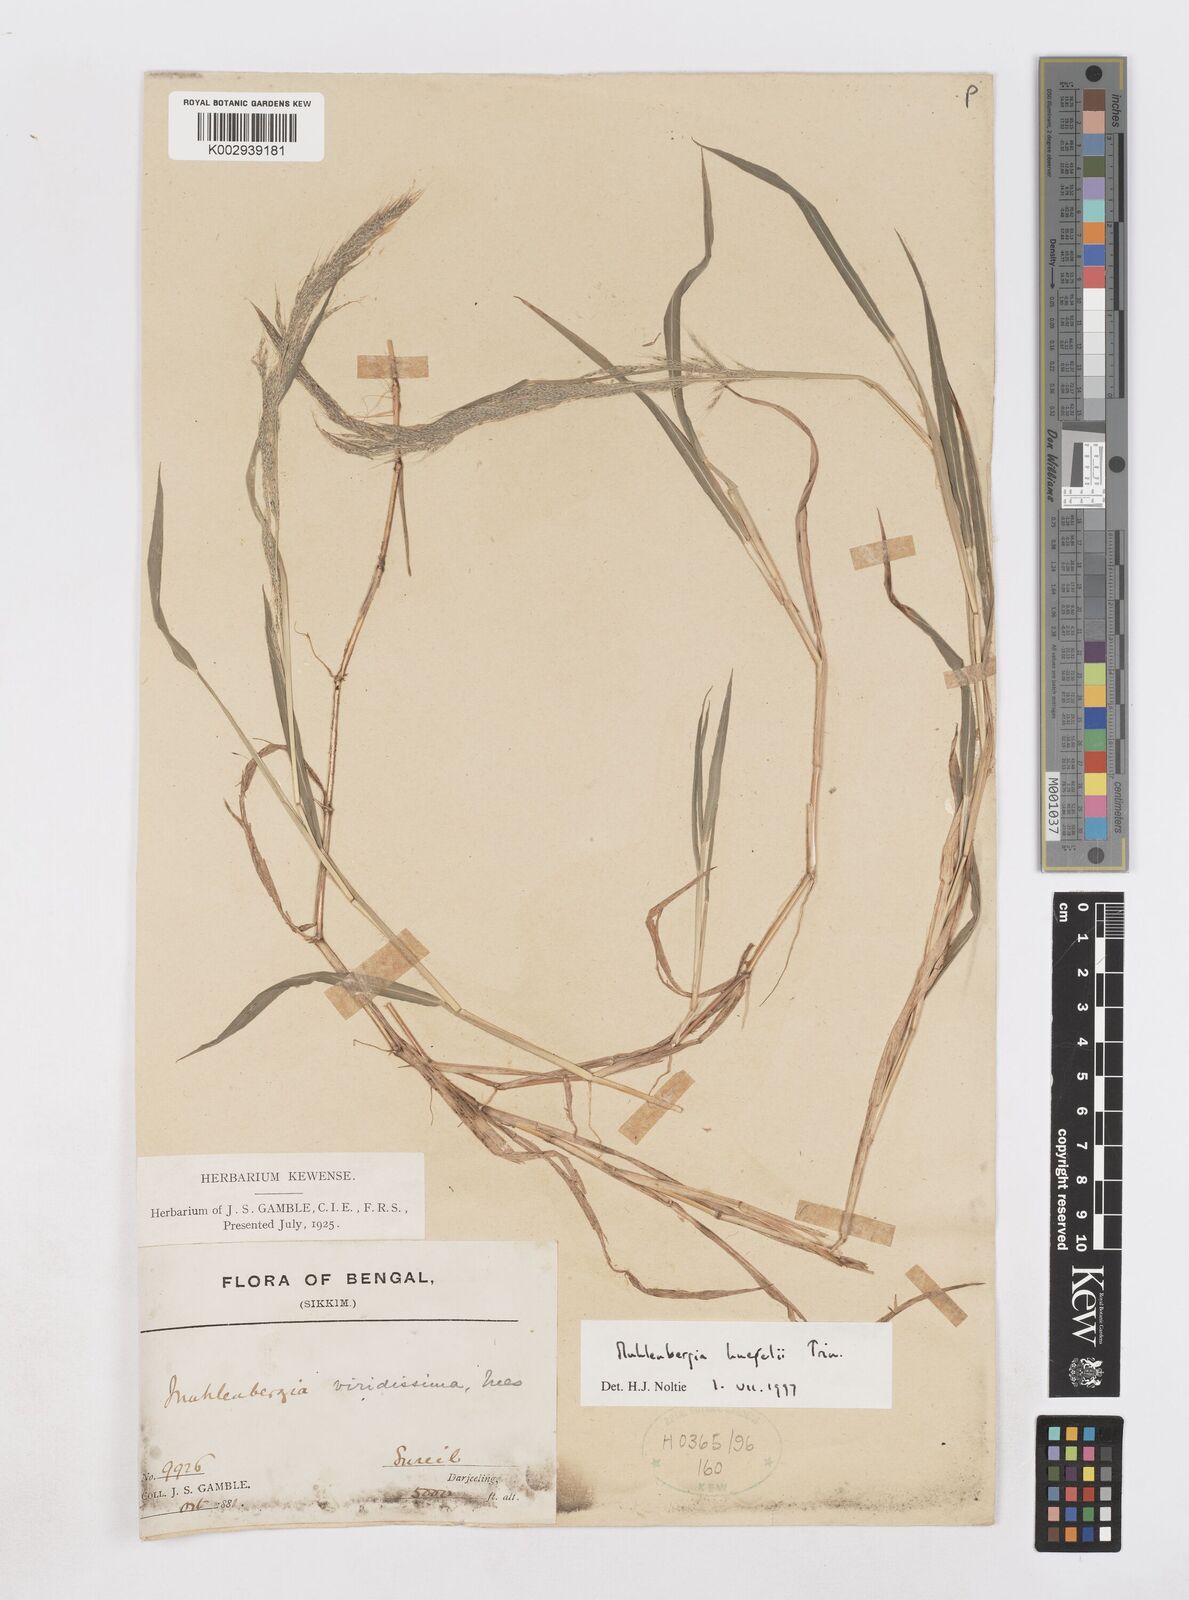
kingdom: Plantae
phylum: Tracheophyta
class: Liliopsida
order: Poales
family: Poaceae
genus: Muhlenbergia
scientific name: Muhlenbergia huegelii
